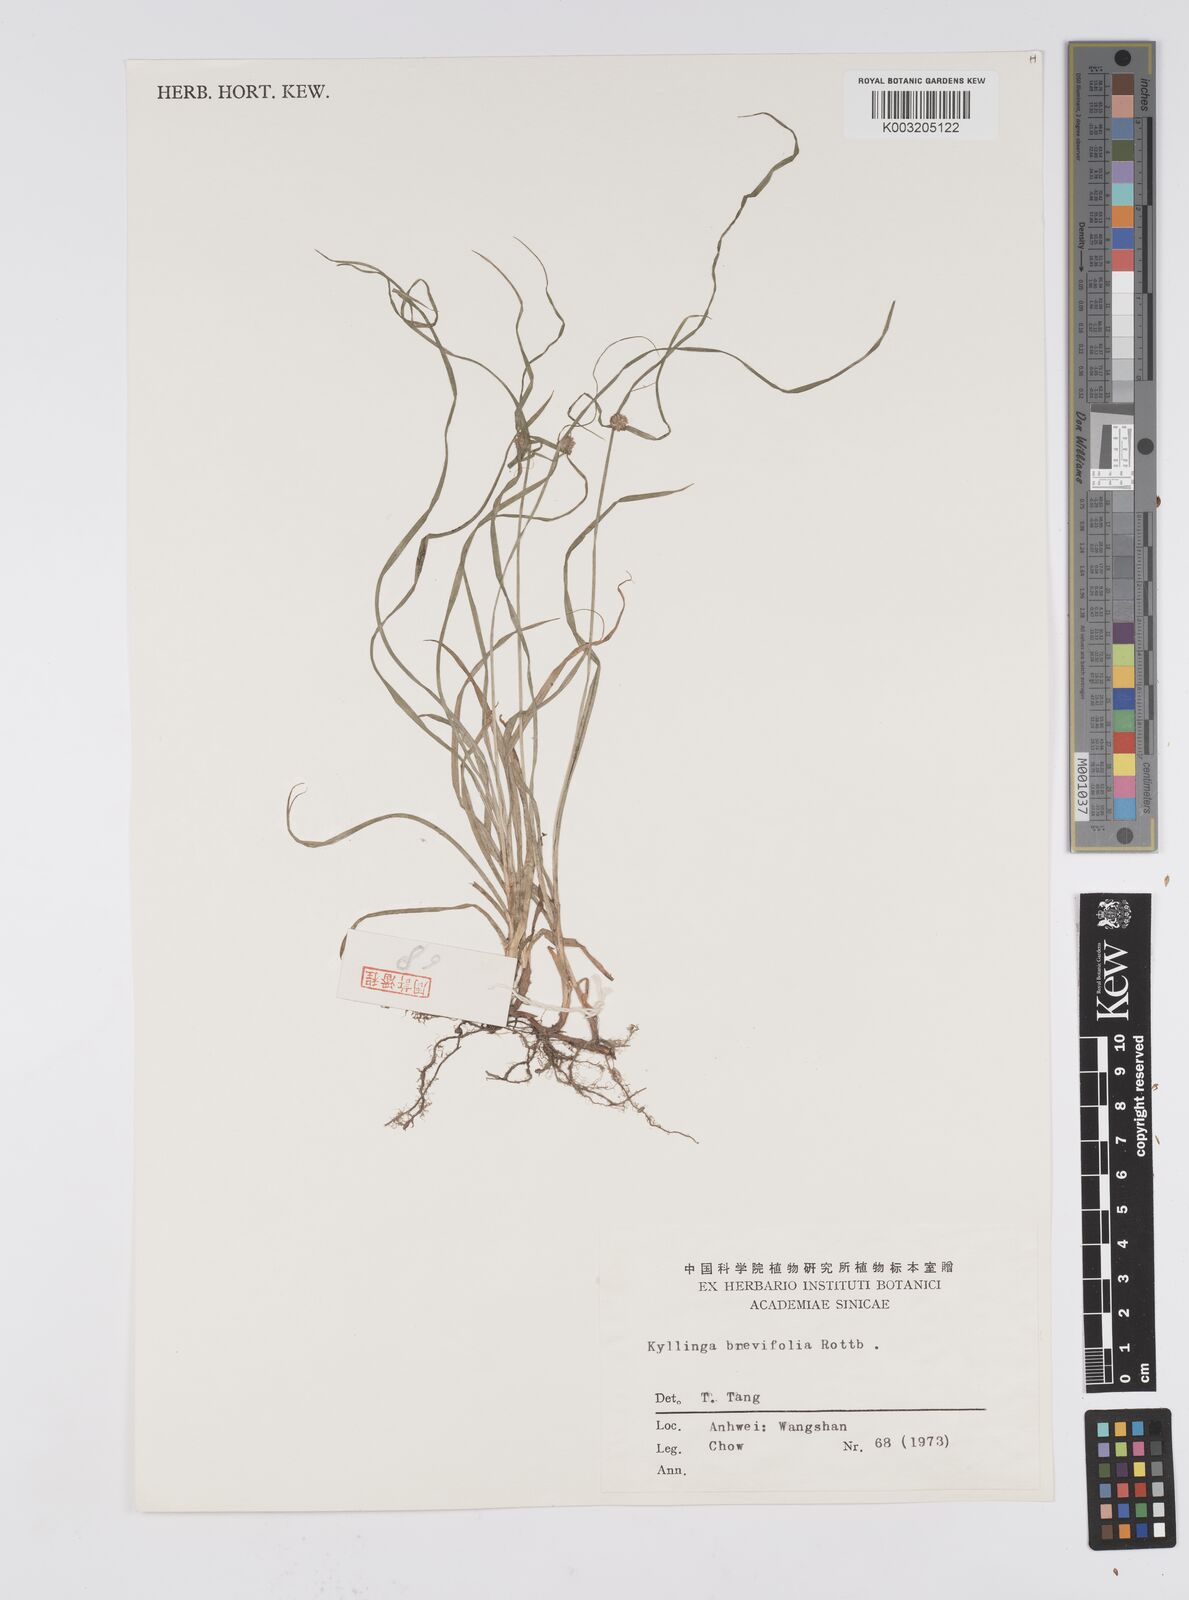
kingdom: Plantae
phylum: Tracheophyta
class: Liliopsida
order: Poales
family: Cyperaceae
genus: Cyperus
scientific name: Cyperus brevifolius
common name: Globe kyllinga
